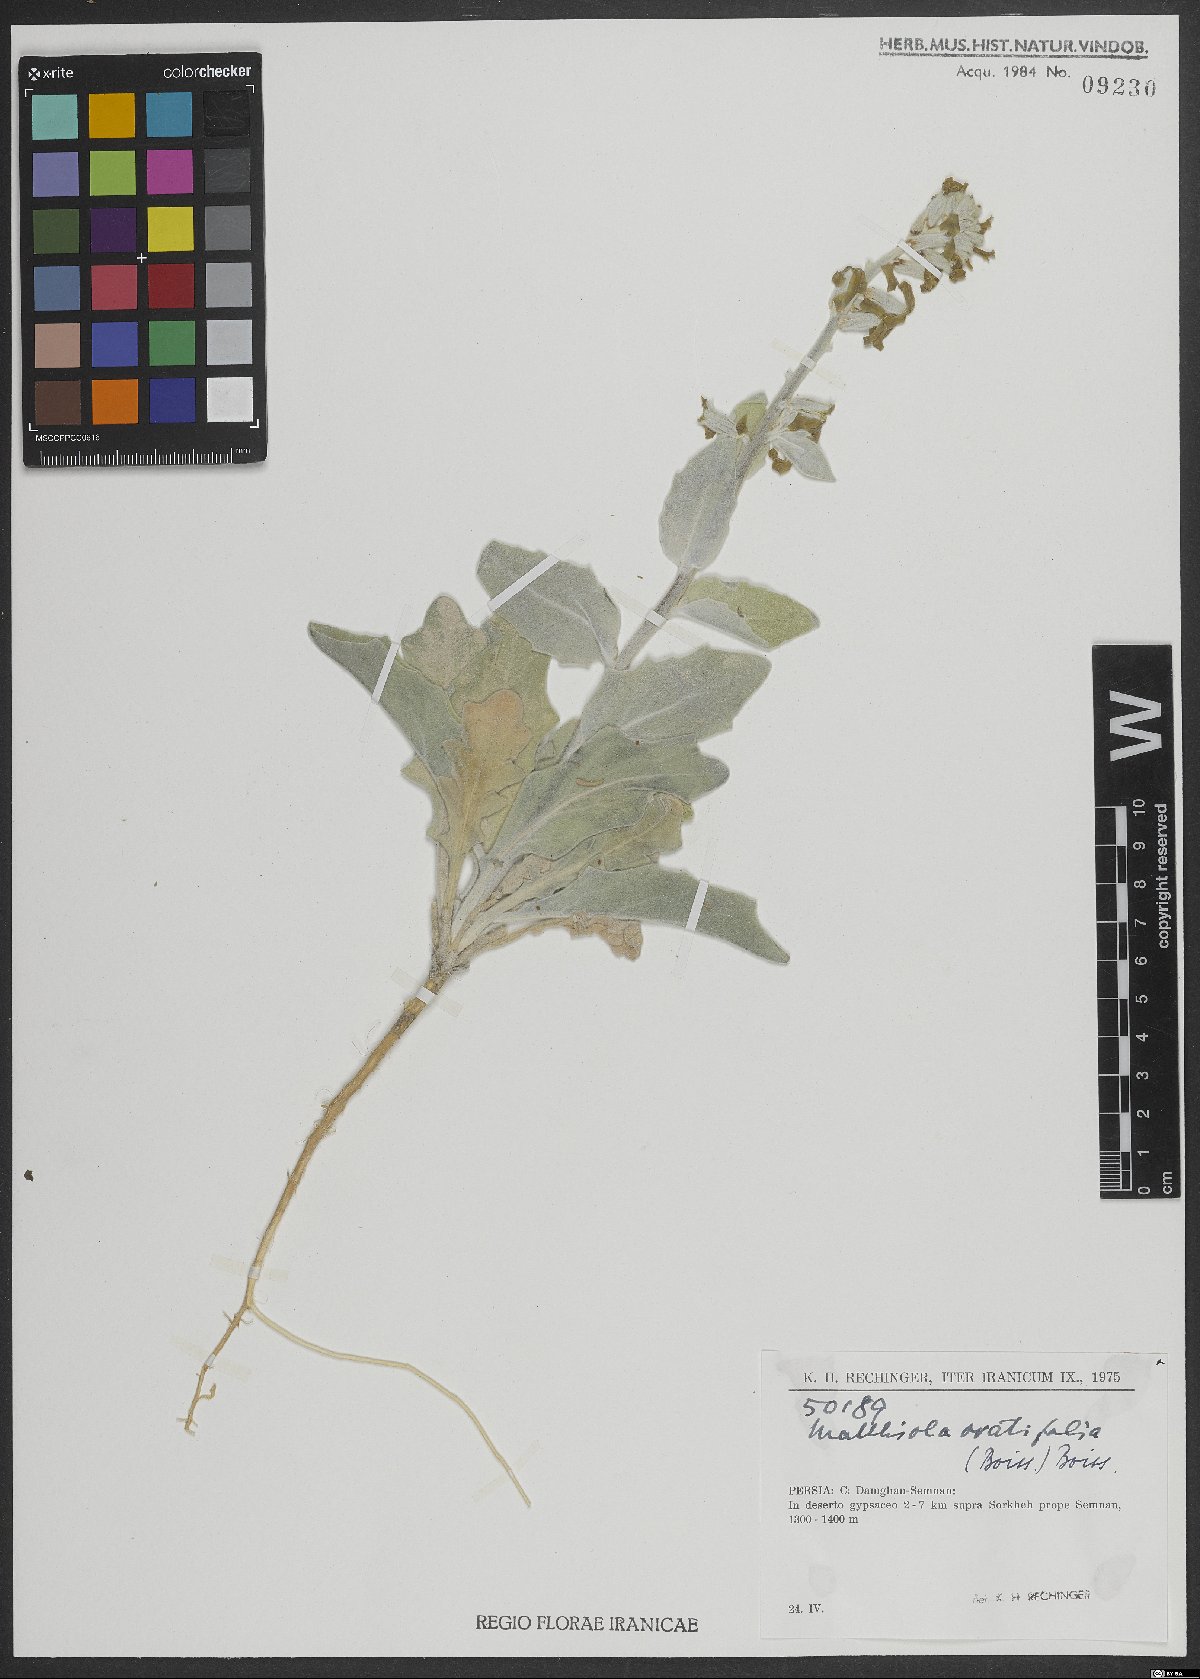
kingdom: Plantae
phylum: Tracheophyta
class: Magnoliopsida
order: Brassicales
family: Brassicaceae
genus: Matthiola
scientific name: Matthiola ovatifolia
